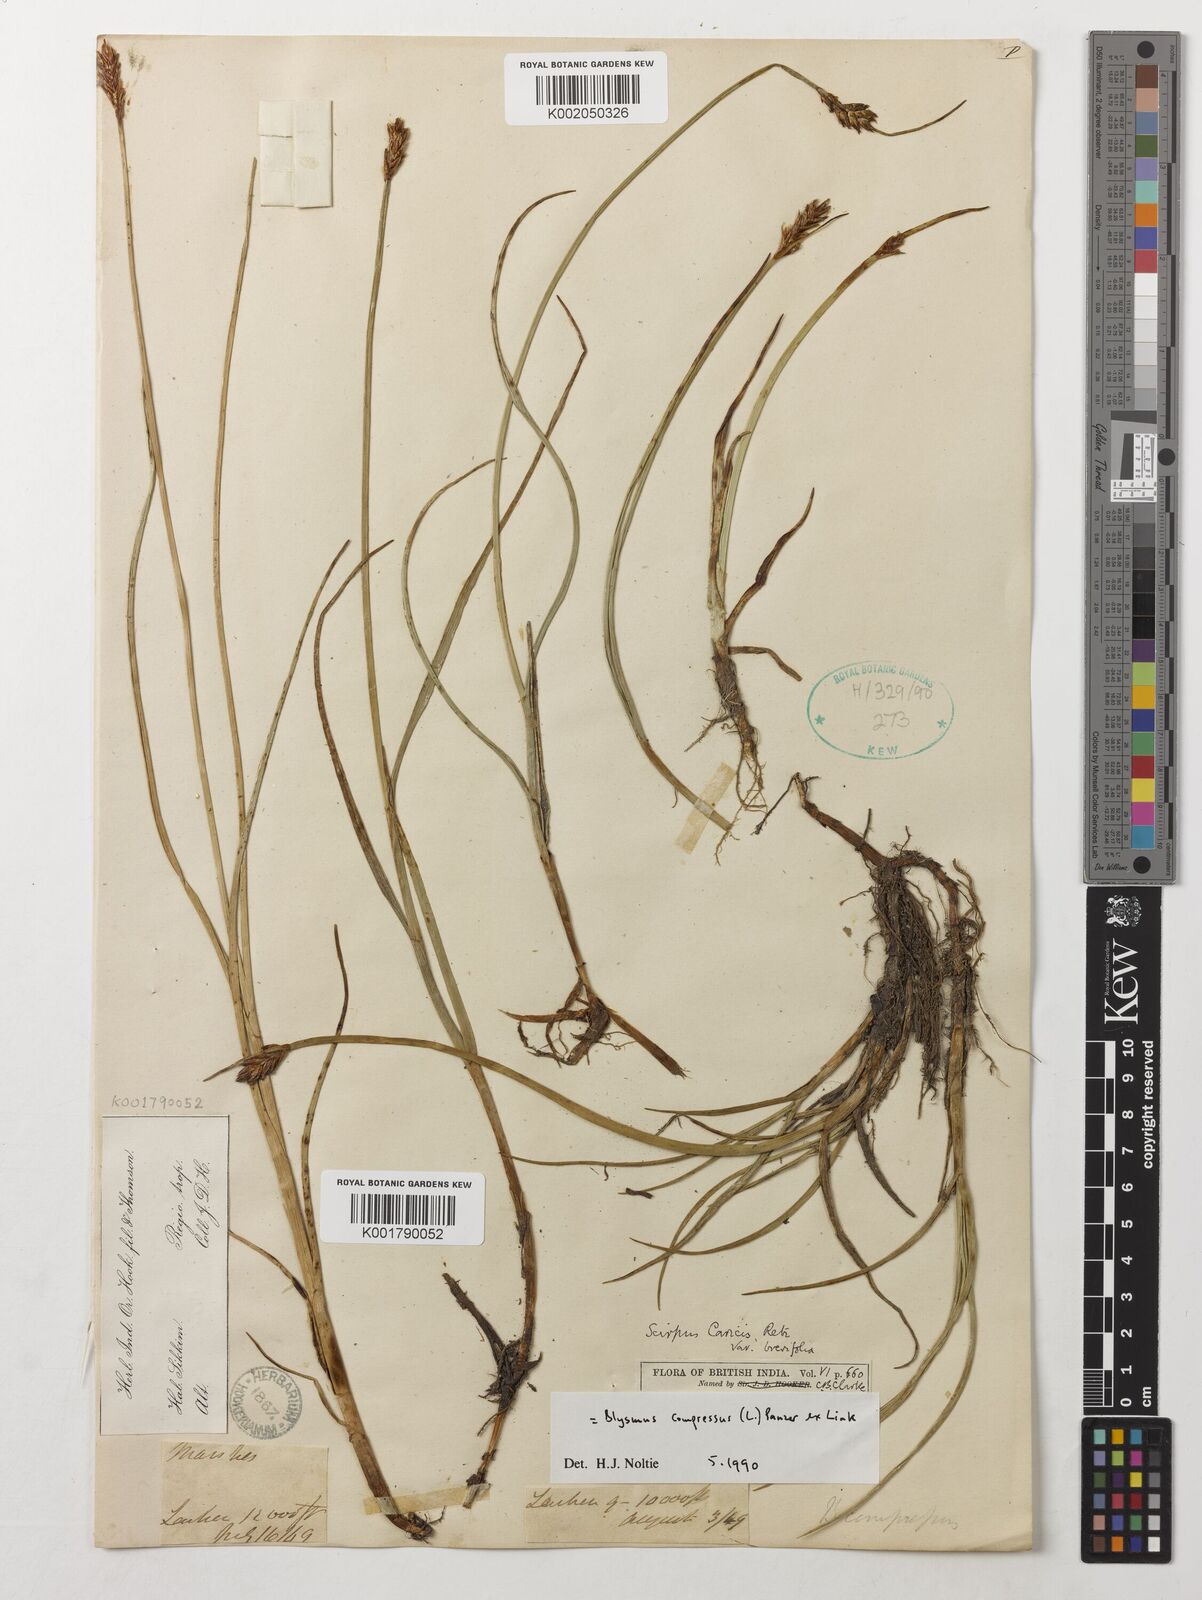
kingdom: Plantae
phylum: Tracheophyta
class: Liliopsida
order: Poales
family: Cyperaceae
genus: Blysmus
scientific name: Blysmus compressus
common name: Flat-sedge
